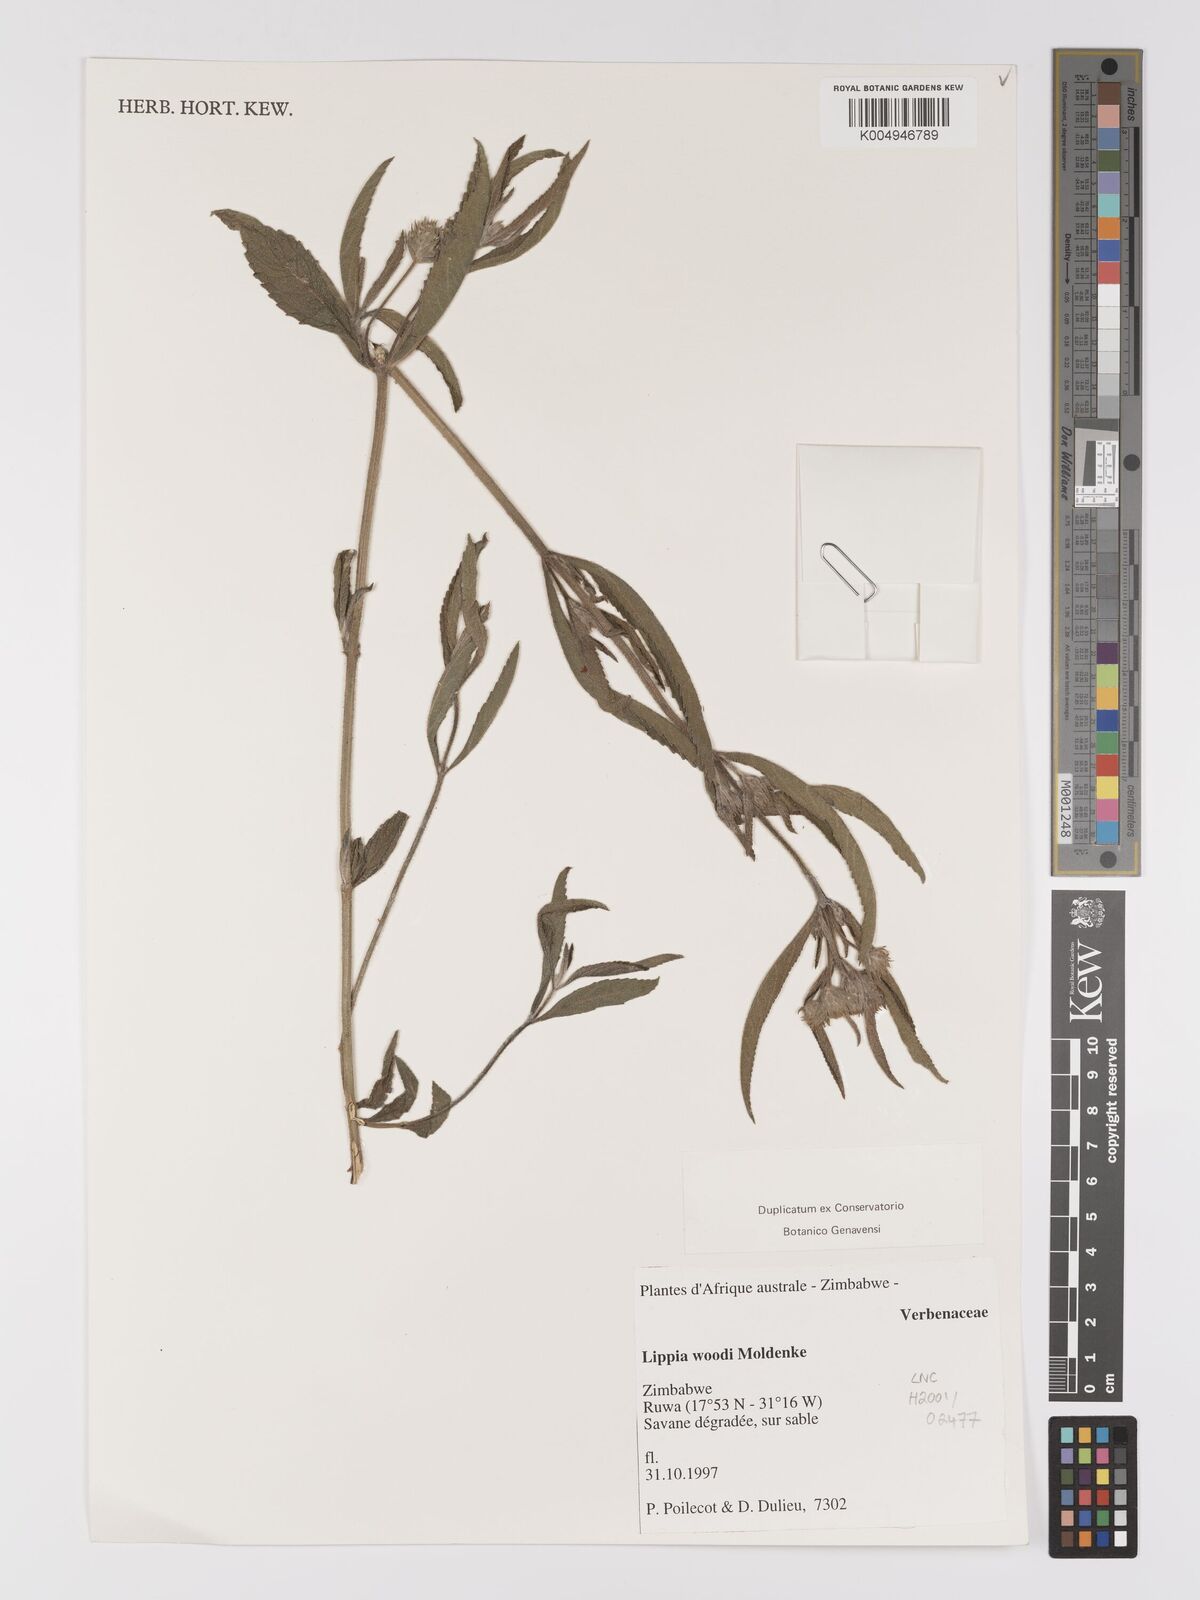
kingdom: Plantae
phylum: Tracheophyta
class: Magnoliopsida
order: Lamiales
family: Verbenaceae
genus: Lippia
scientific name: Lippia woodii
